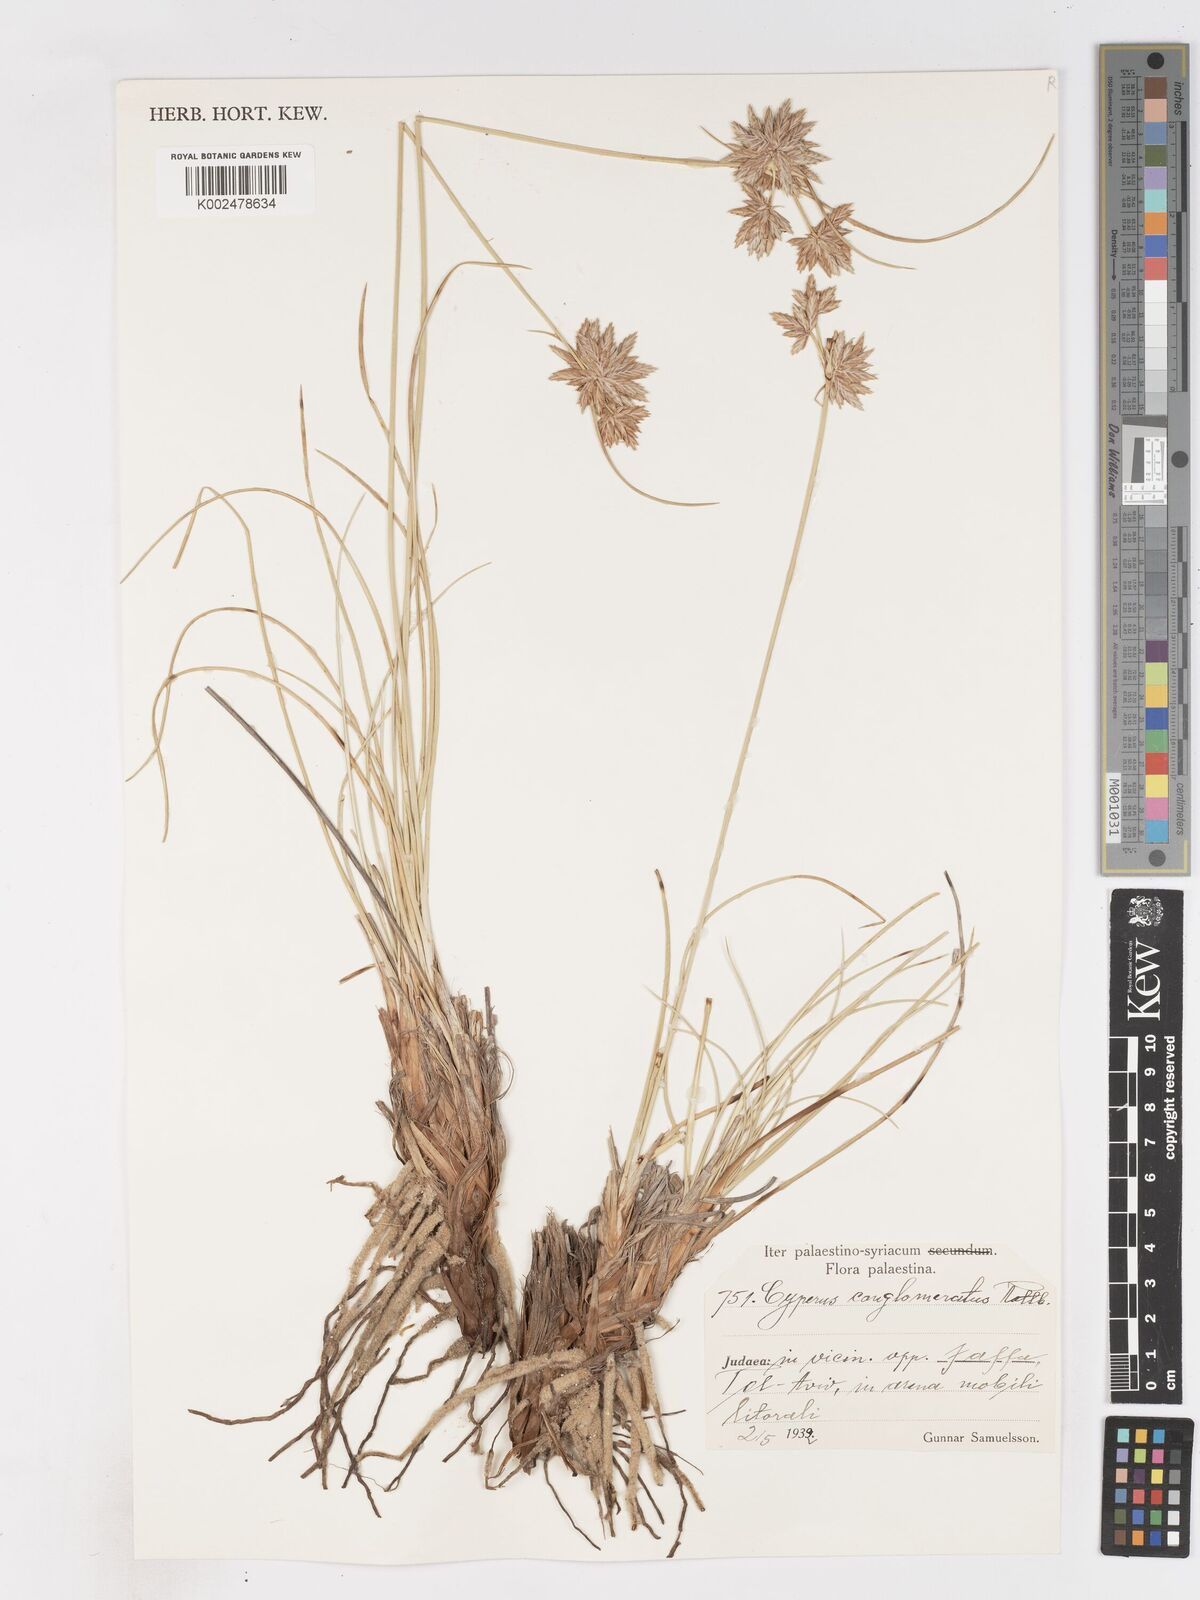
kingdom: Plantae
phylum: Tracheophyta
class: Liliopsida
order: Poales
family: Cyperaceae
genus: Cyperus
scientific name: Cyperus conglomeratus
